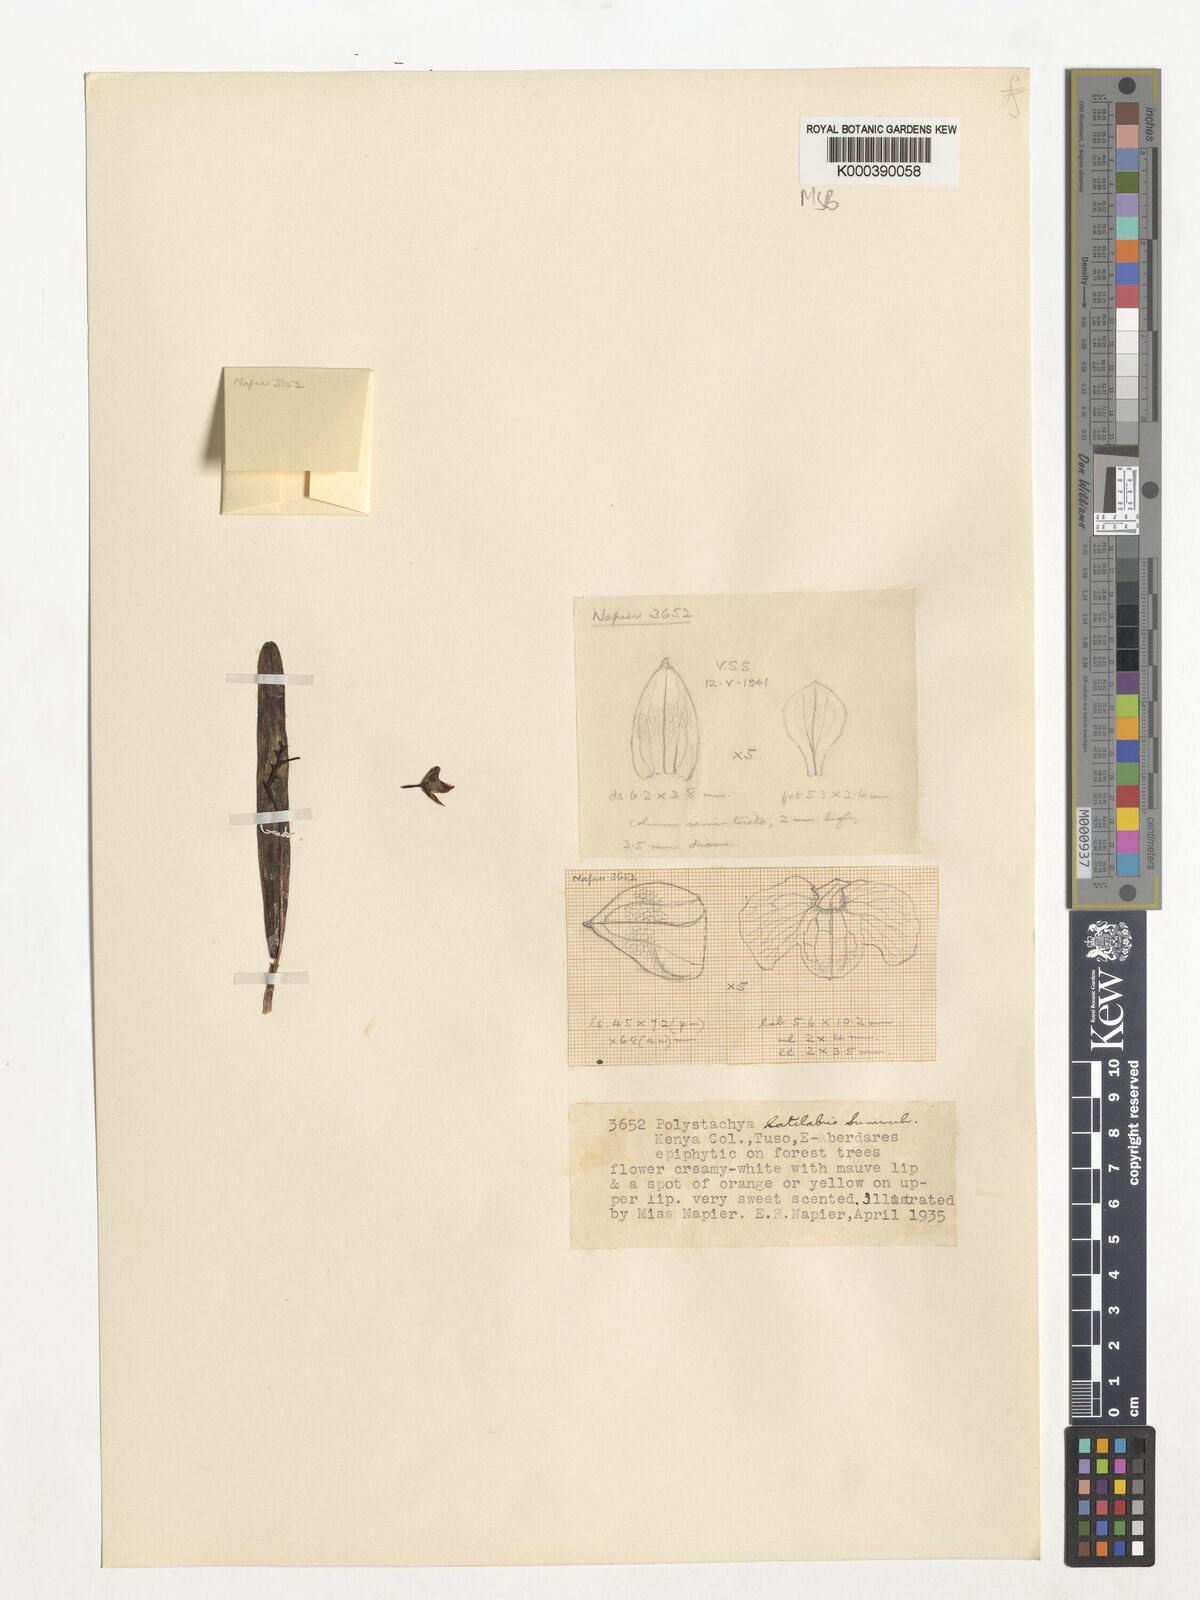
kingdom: Plantae
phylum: Tracheophyta
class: Liliopsida
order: Asparagales
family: Orchidaceae
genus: Polystachya
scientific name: Polystachya caespitifica
